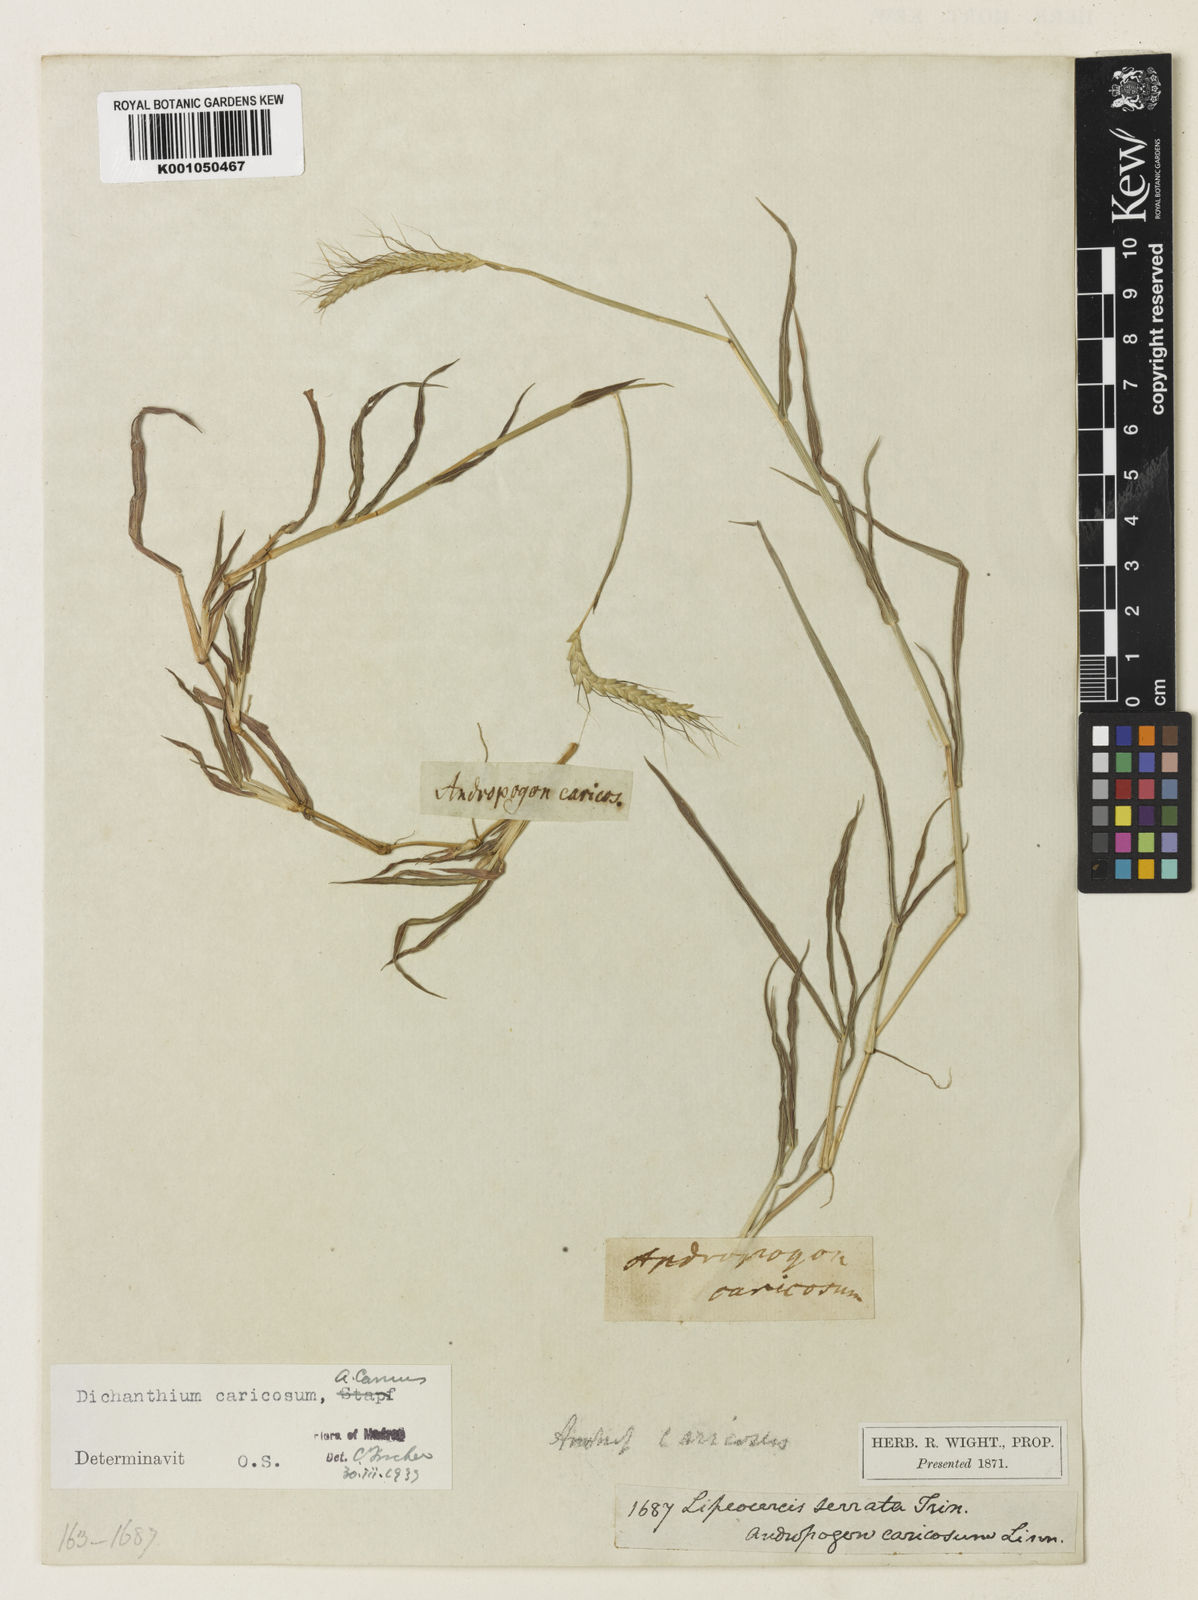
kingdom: Plantae
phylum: Tracheophyta
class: Liliopsida
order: Poales
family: Poaceae
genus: Dichanthium
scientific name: Dichanthium caricosum
